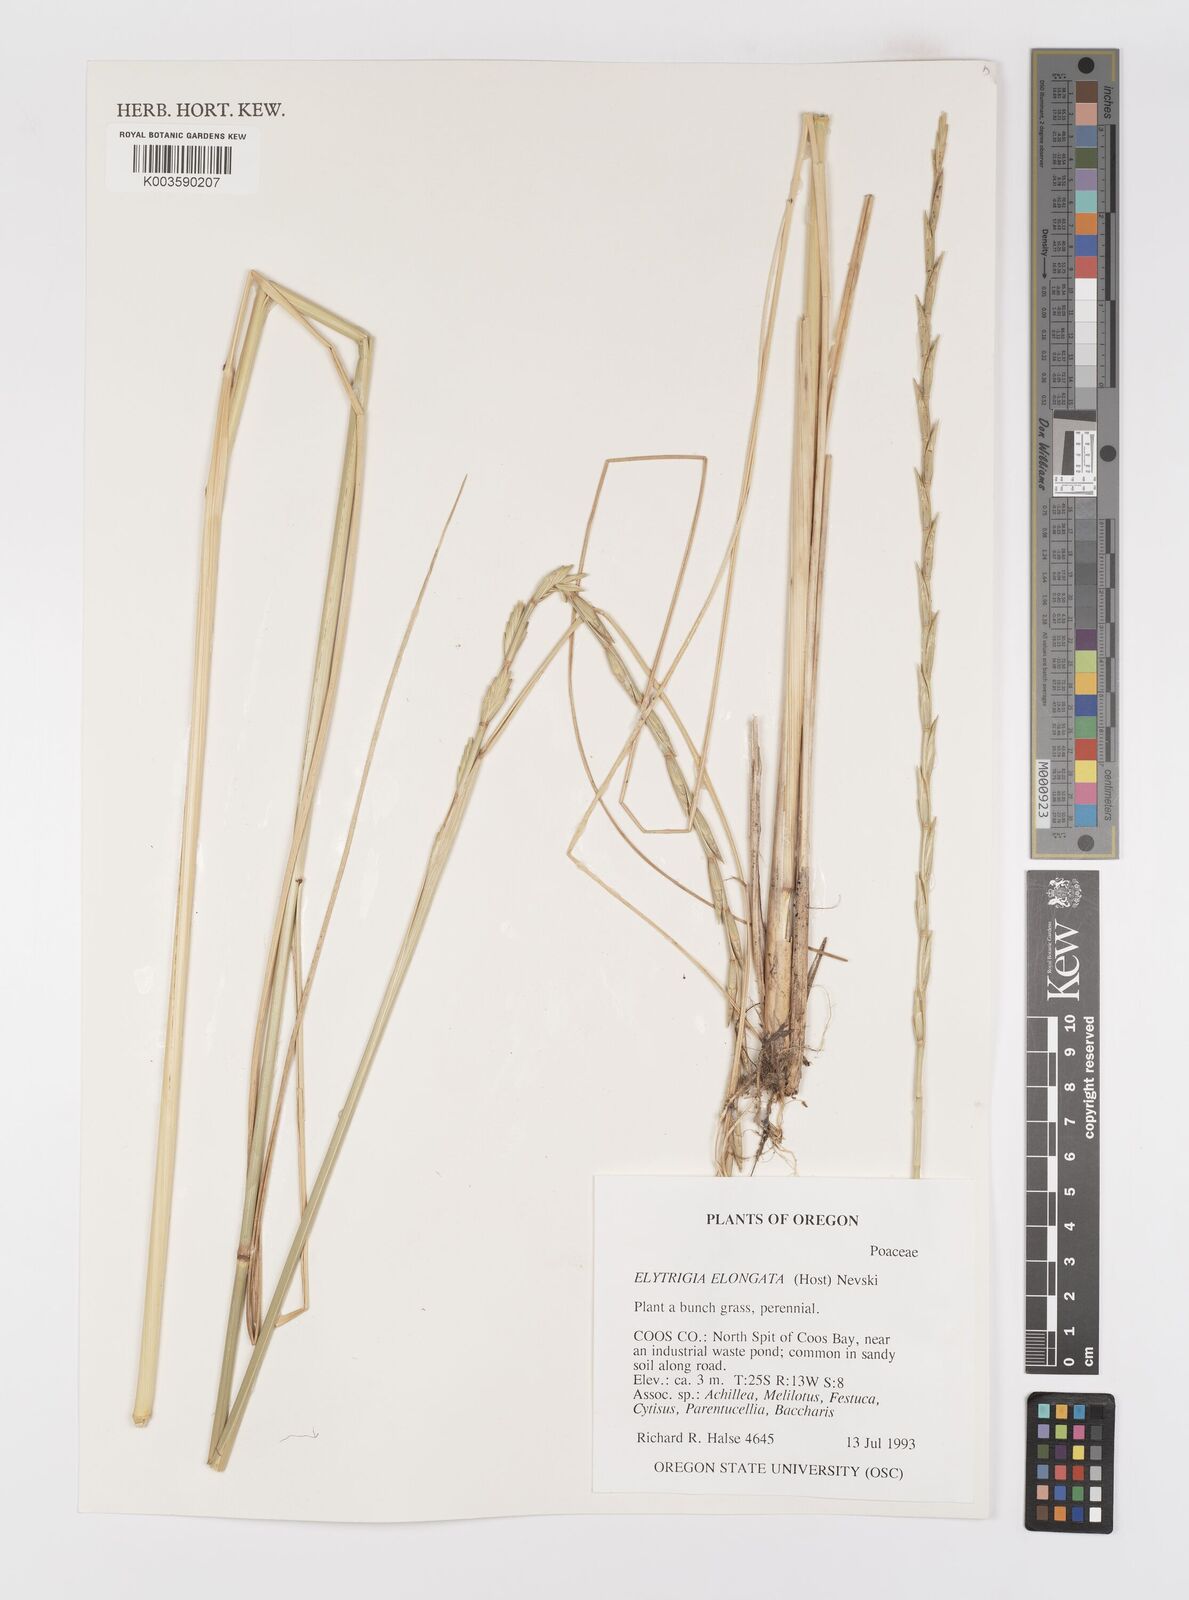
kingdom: Plantae
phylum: Tracheophyta
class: Liliopsida
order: Poales
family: Poaceae
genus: Thinopyrum
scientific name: Thinopyrum elongatum
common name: Tall wheatgrass
